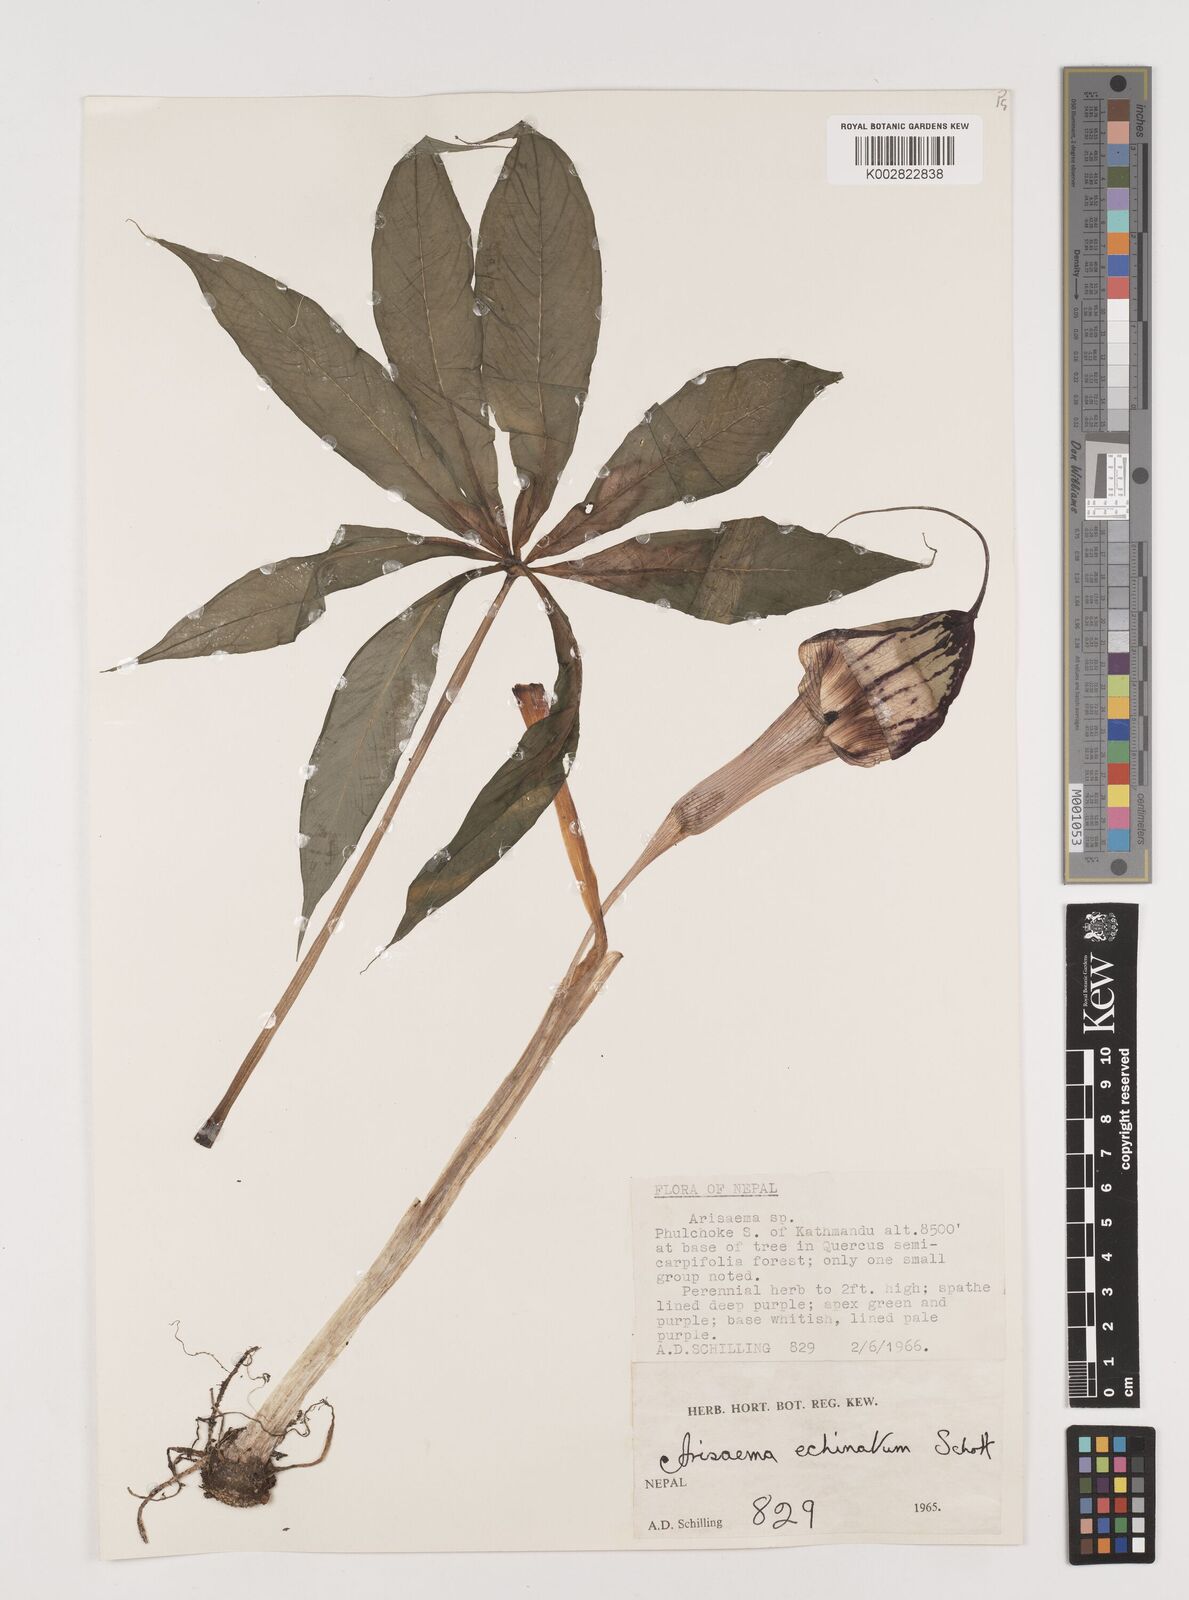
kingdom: Plantae
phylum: Tracheophyta
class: Liliopsida
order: Alismatales
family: Araceae
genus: Arisaema
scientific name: Arisaema echinatum
